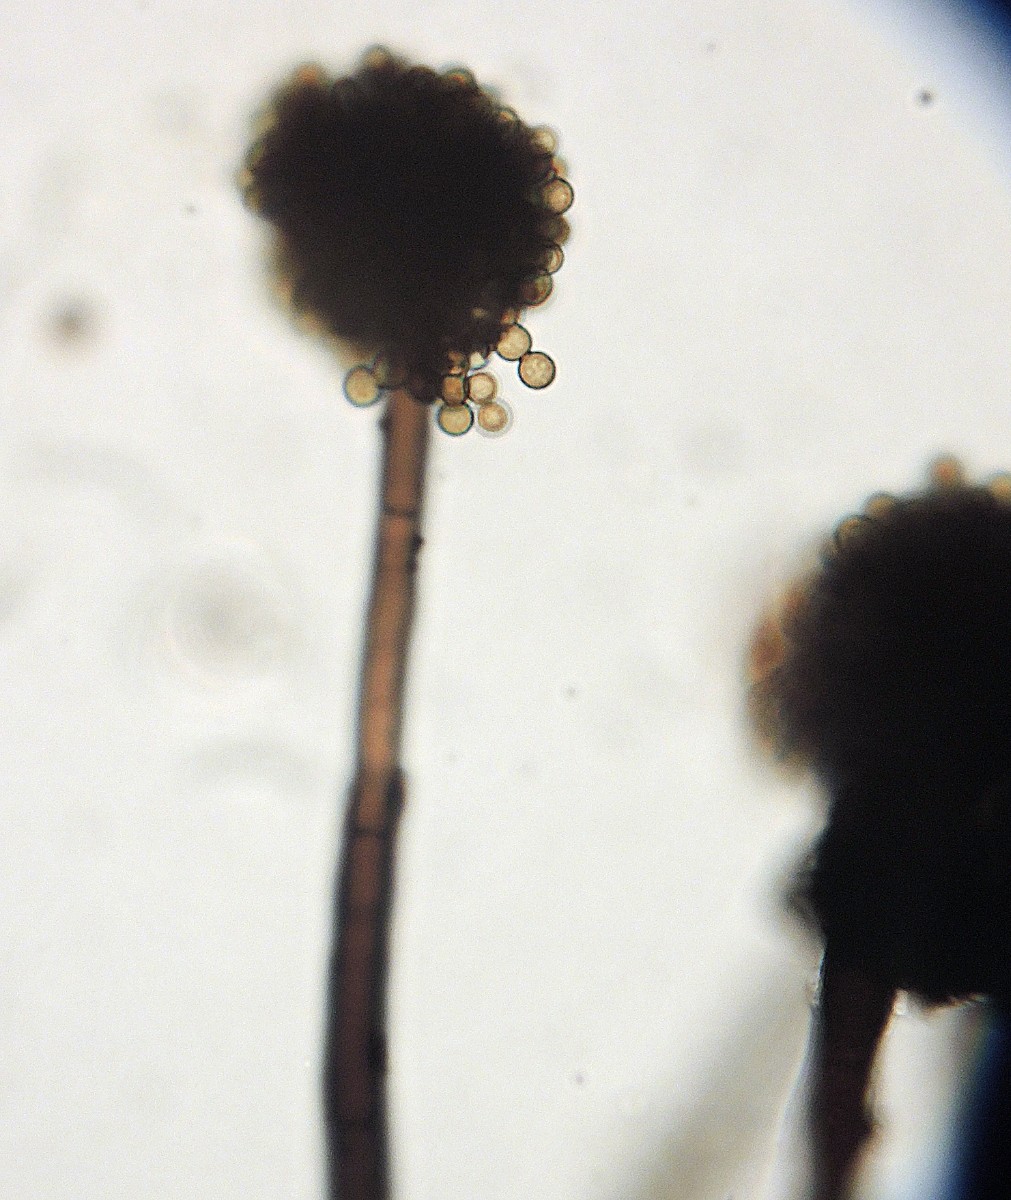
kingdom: Fungi
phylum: Ascomycota
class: Dothideomycetes
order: Pleosporales
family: Massarinaceae
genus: Massarina
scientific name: Massarina igniaria
